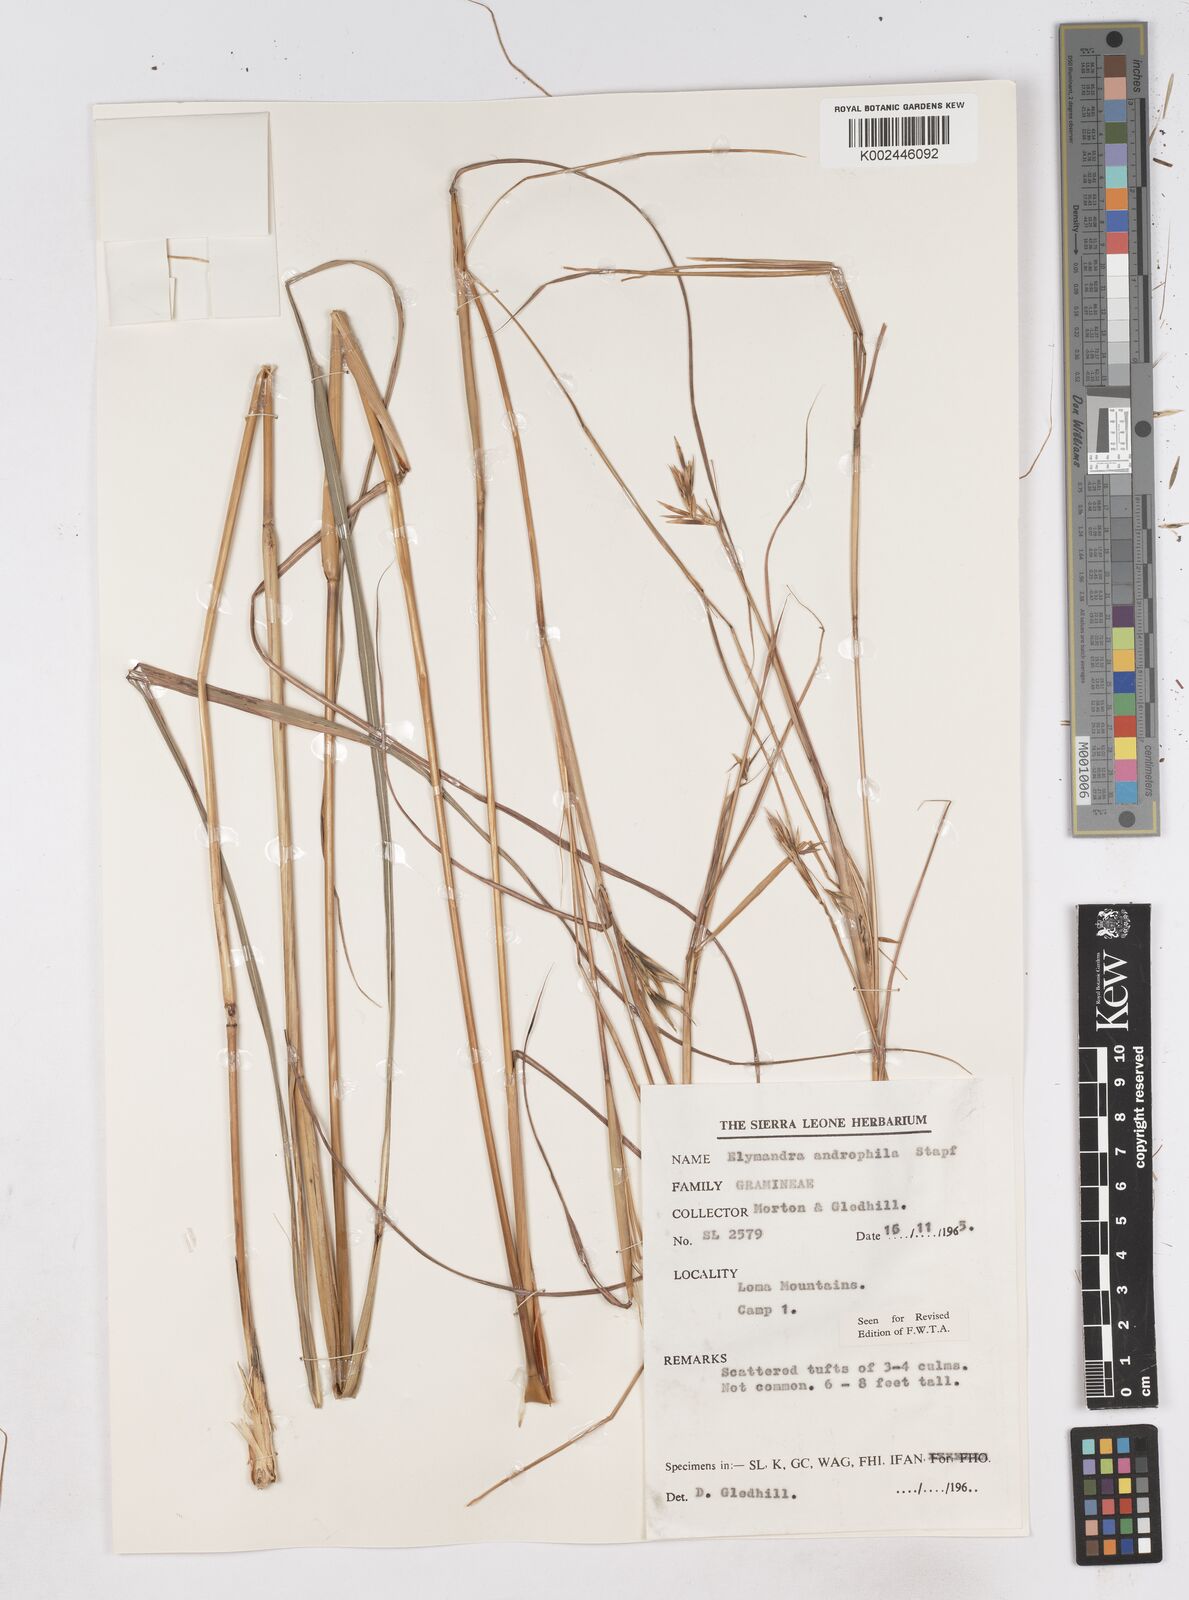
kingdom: Plantae
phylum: Tracheophyta
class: Liliopsida
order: Poales
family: Poaceae
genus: Elymandra
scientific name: Elymandra androphila
